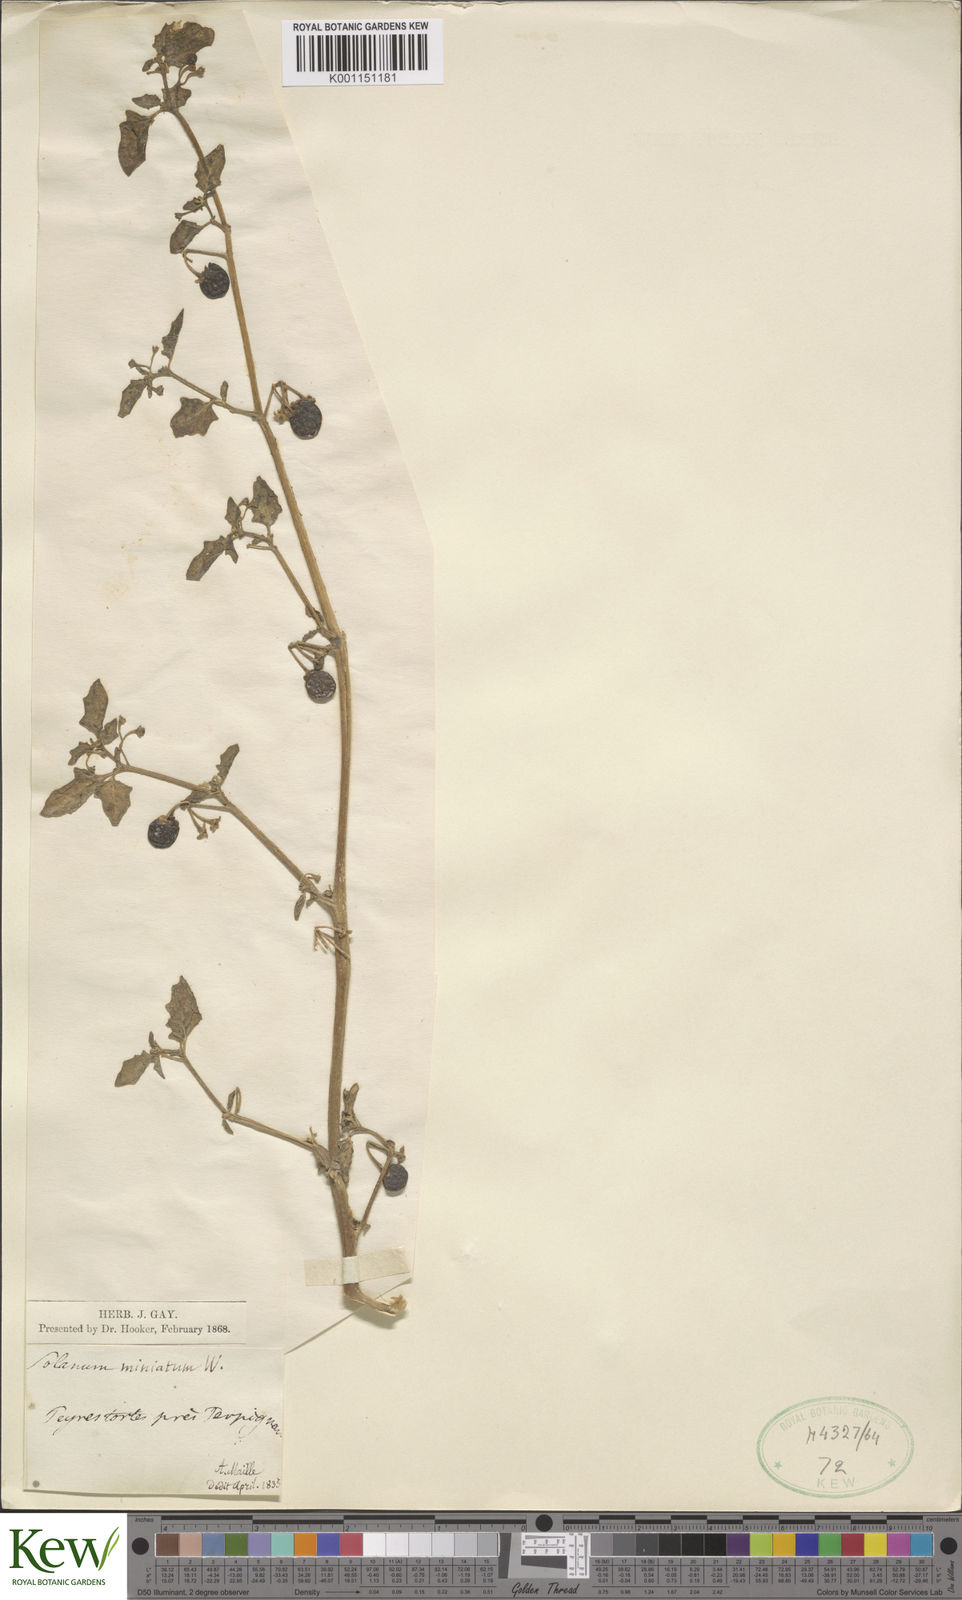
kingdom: Plantae
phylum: Tracheophyta
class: Magnoliopsida
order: Solanales
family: Solanaceae
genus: Solanum
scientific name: Solanum alatum
